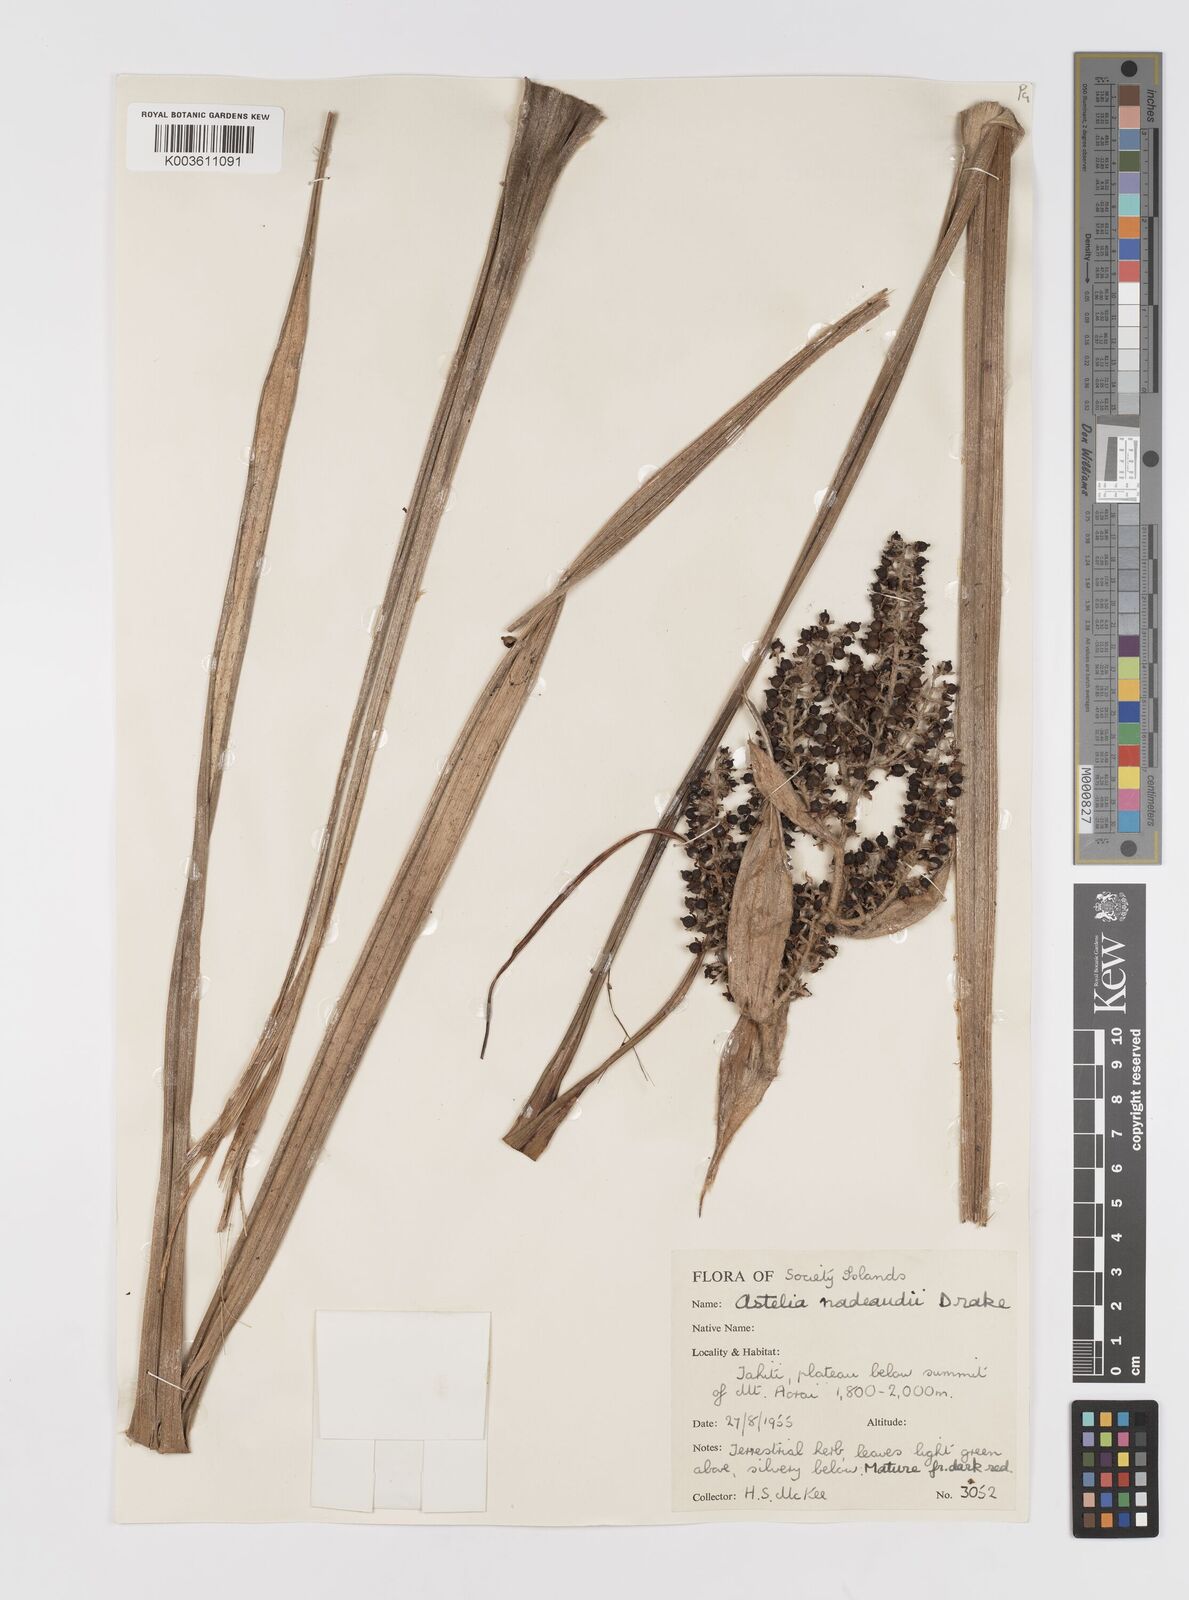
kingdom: Plantae
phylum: Tracheophyta
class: Liliopsida
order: Asparagales
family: Asteliaceae
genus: Astelia
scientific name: Astelia nadeaudii
